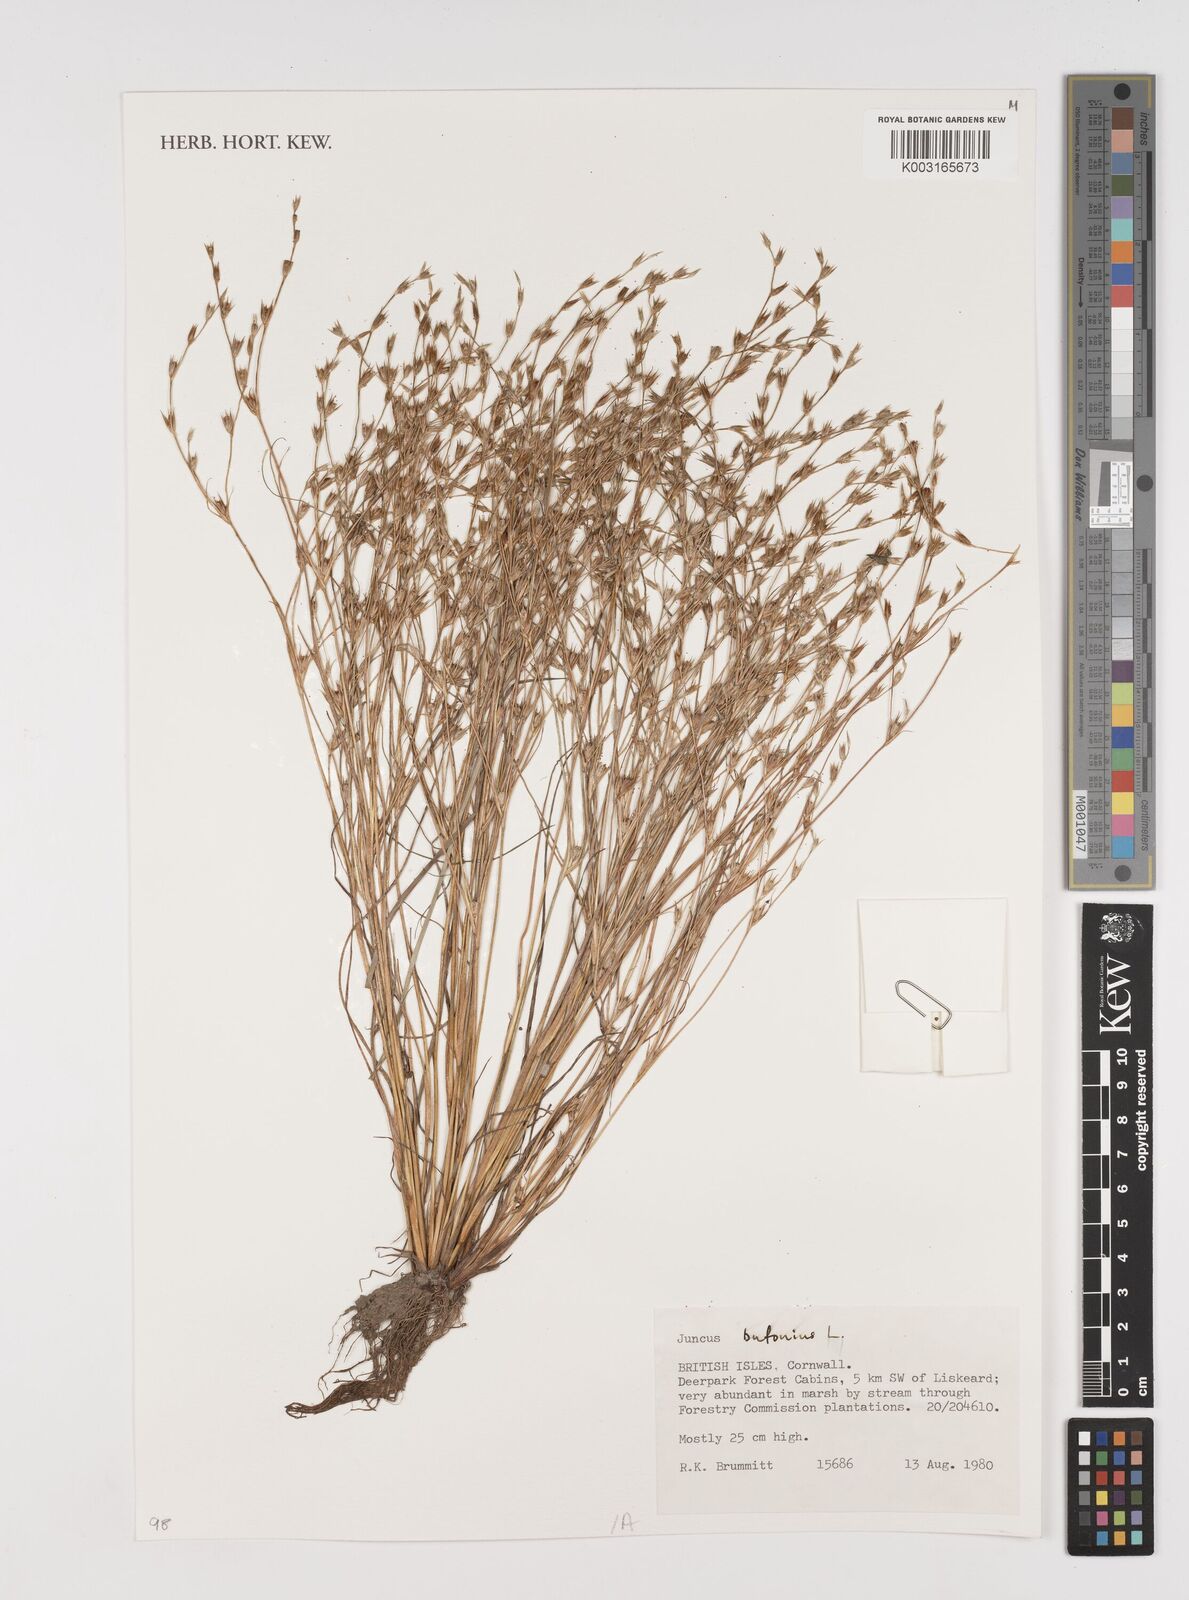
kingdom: Plantae
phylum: Tracheophyta
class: Liliopsida
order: Poales
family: Juncaceae
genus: Juncus
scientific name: Juncus bufonius
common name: Toad rush
